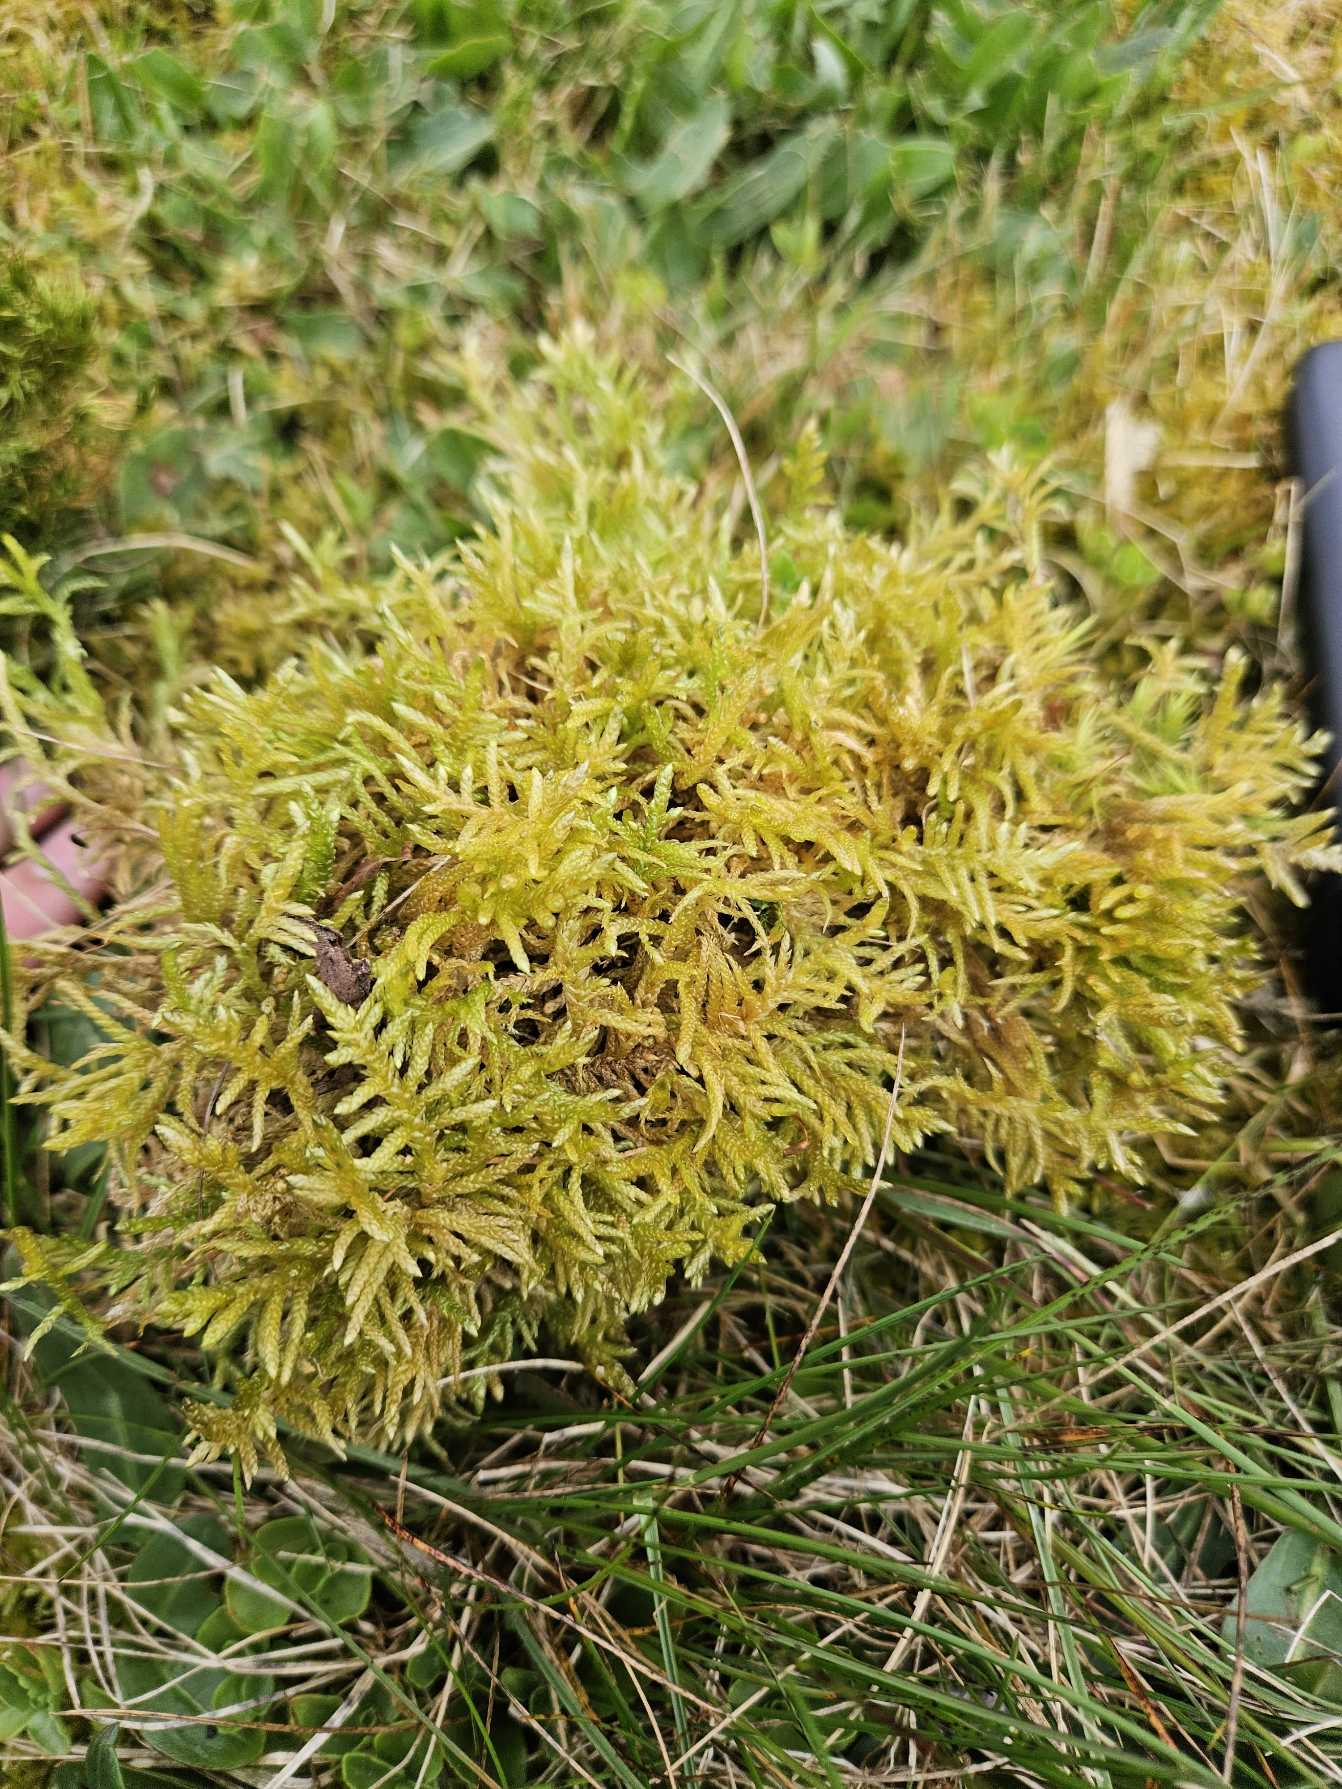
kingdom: Plantae
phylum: Bryophyta
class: Bryopsida
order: Hypnales
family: Brachytheciaceae
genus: Pseudoscleropodium
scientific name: Pseudoscleropodium purum
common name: Hulbladet fedtmos
